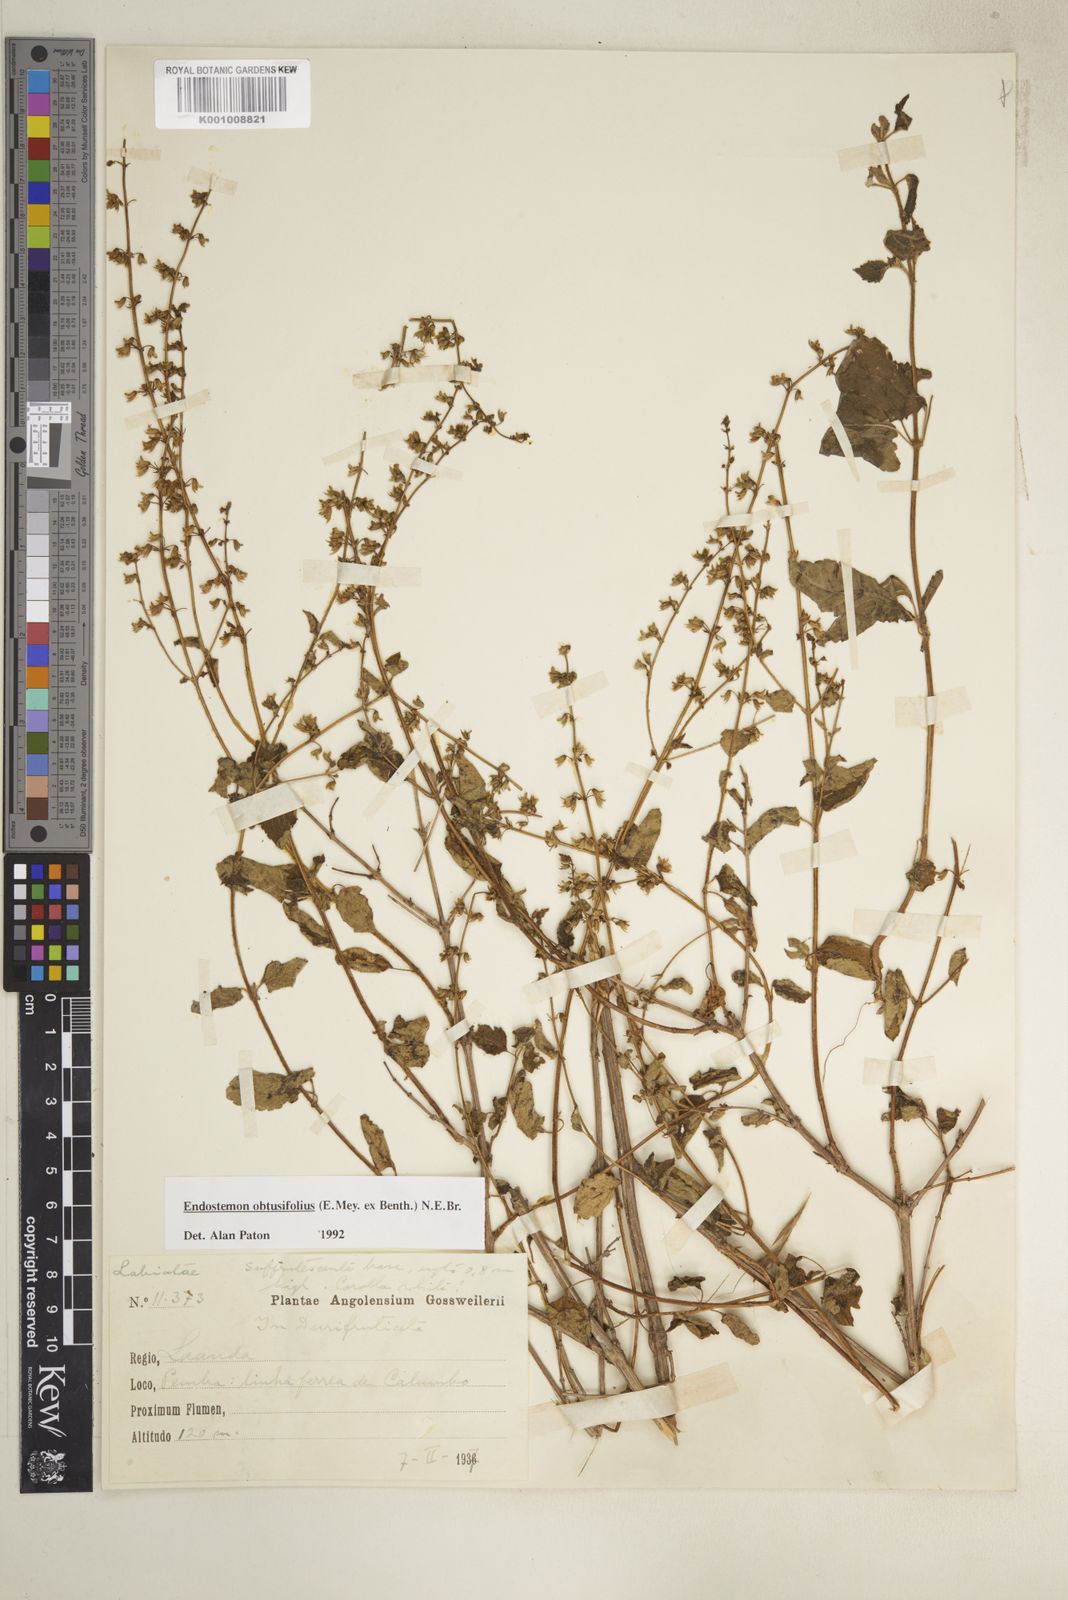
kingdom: Plantae
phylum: Tracheophyta
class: Magnoliopsida
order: Lamiales
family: Lamiaceae
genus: Endostemon
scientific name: Endostemon obtusifolius
